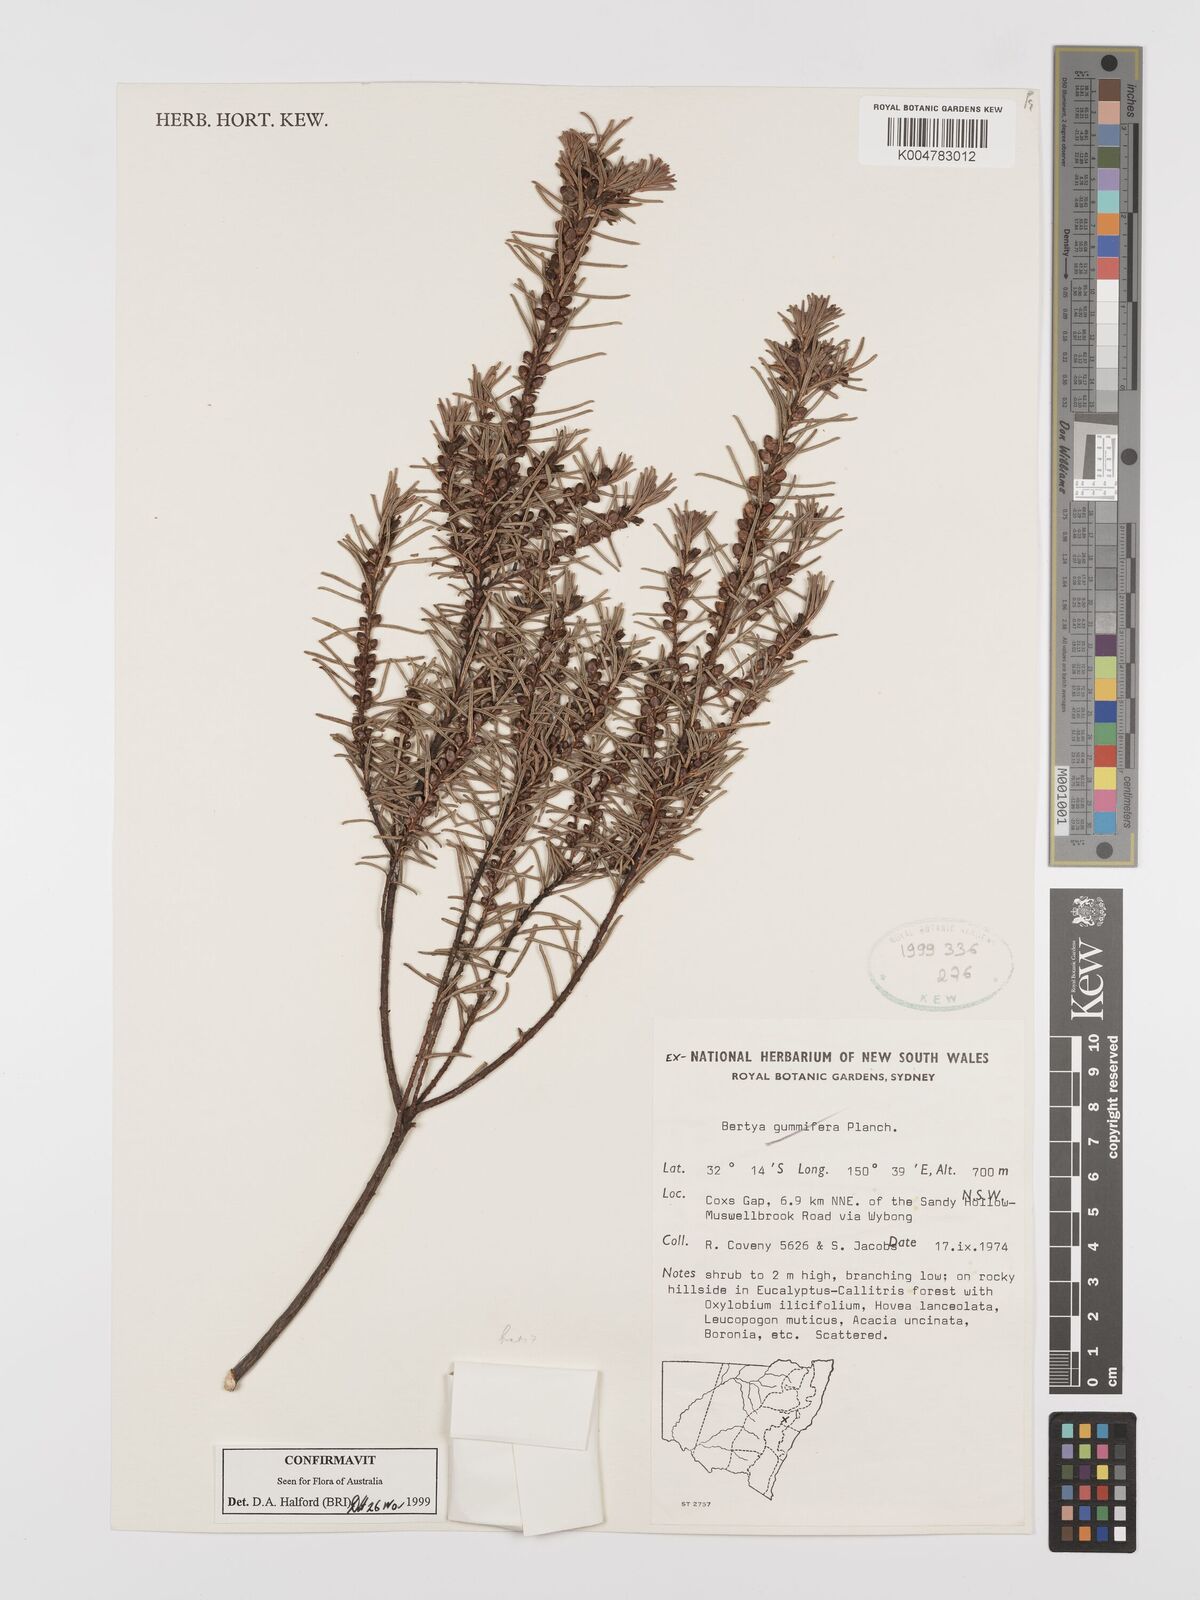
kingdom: Plantae
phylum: Tracheophyta
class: Magnoliopsida
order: Malpighiales
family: Euphorbiaceae
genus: Bertya
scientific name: Bertya gummifera
